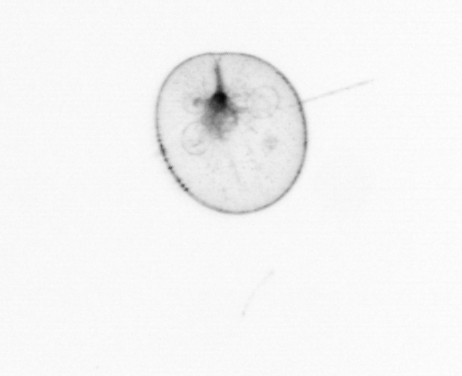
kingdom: Chromista
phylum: Myzozoa
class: Dinophyceae
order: Noctilucales
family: Noctilucaceae
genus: Noctiluca
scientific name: Noctiluca scintillans
